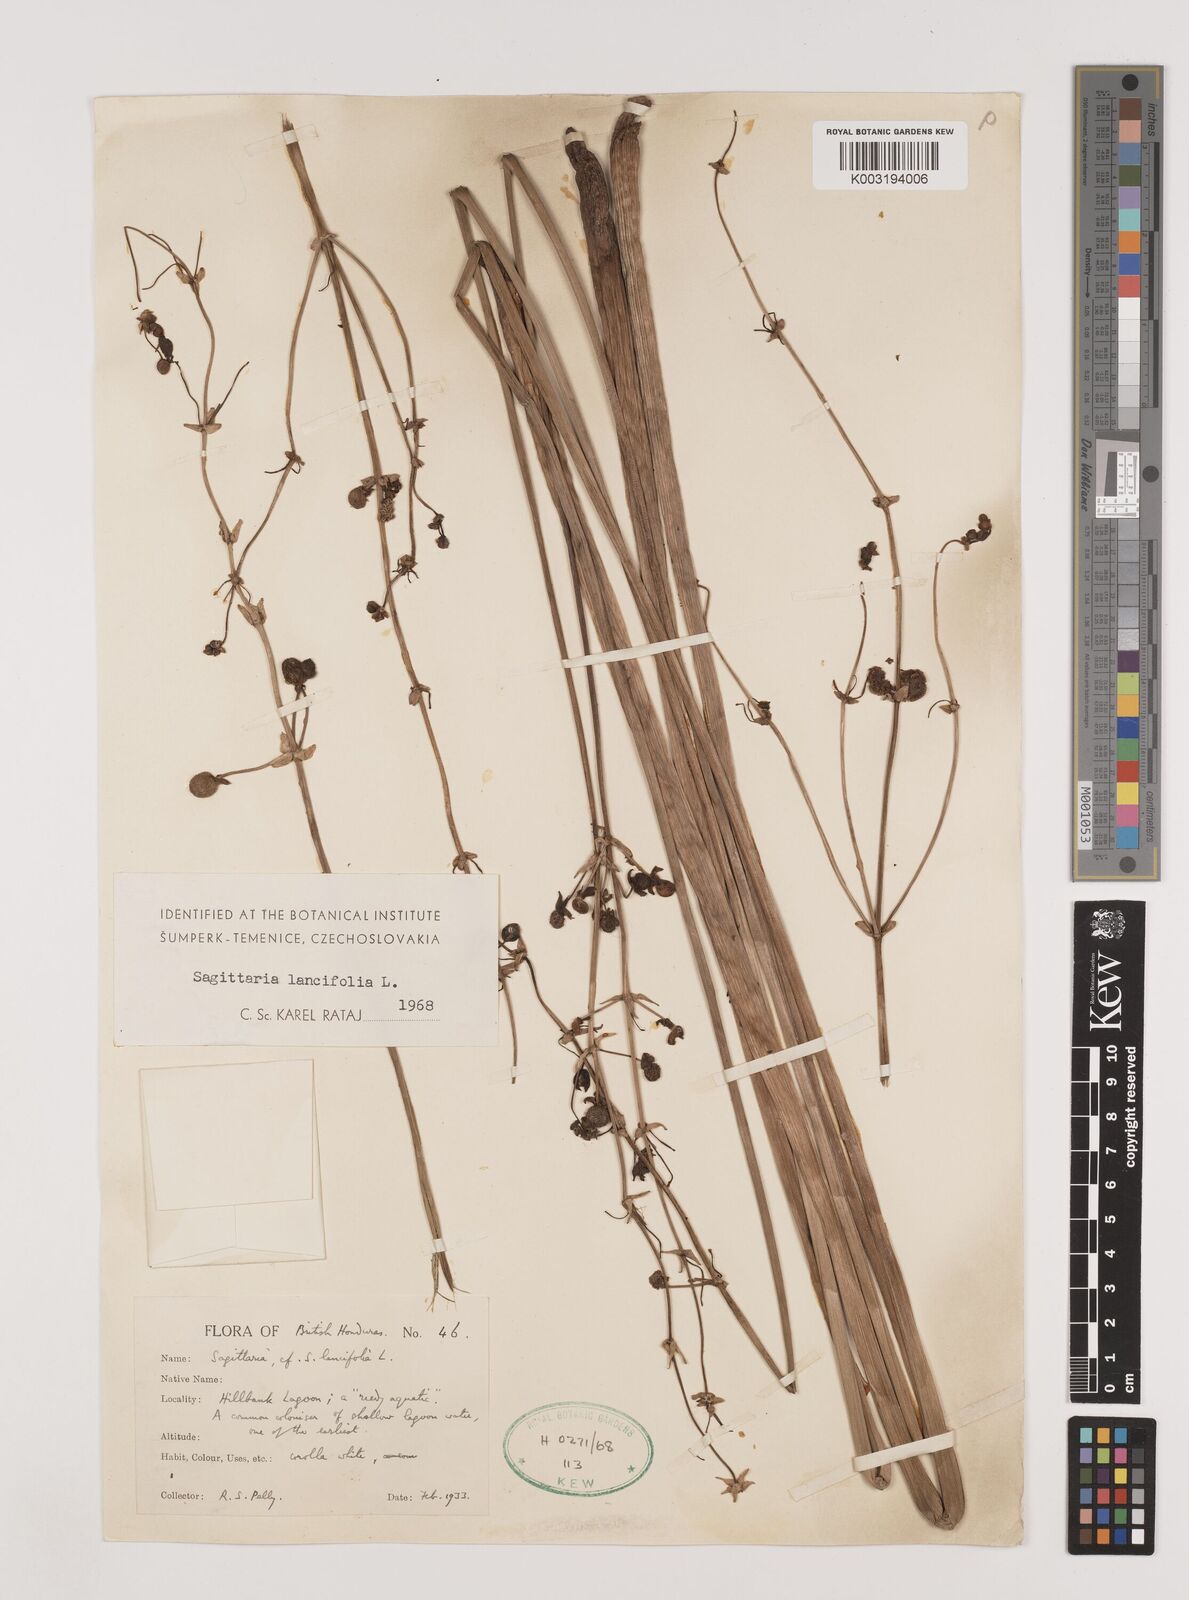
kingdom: Plantae
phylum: Tracheophyta
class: Liliopsida
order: Alismatales
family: Alismataceae
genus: Sagittaria
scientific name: Sagittaria lancifolia
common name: Lance-leaf arrowhead
